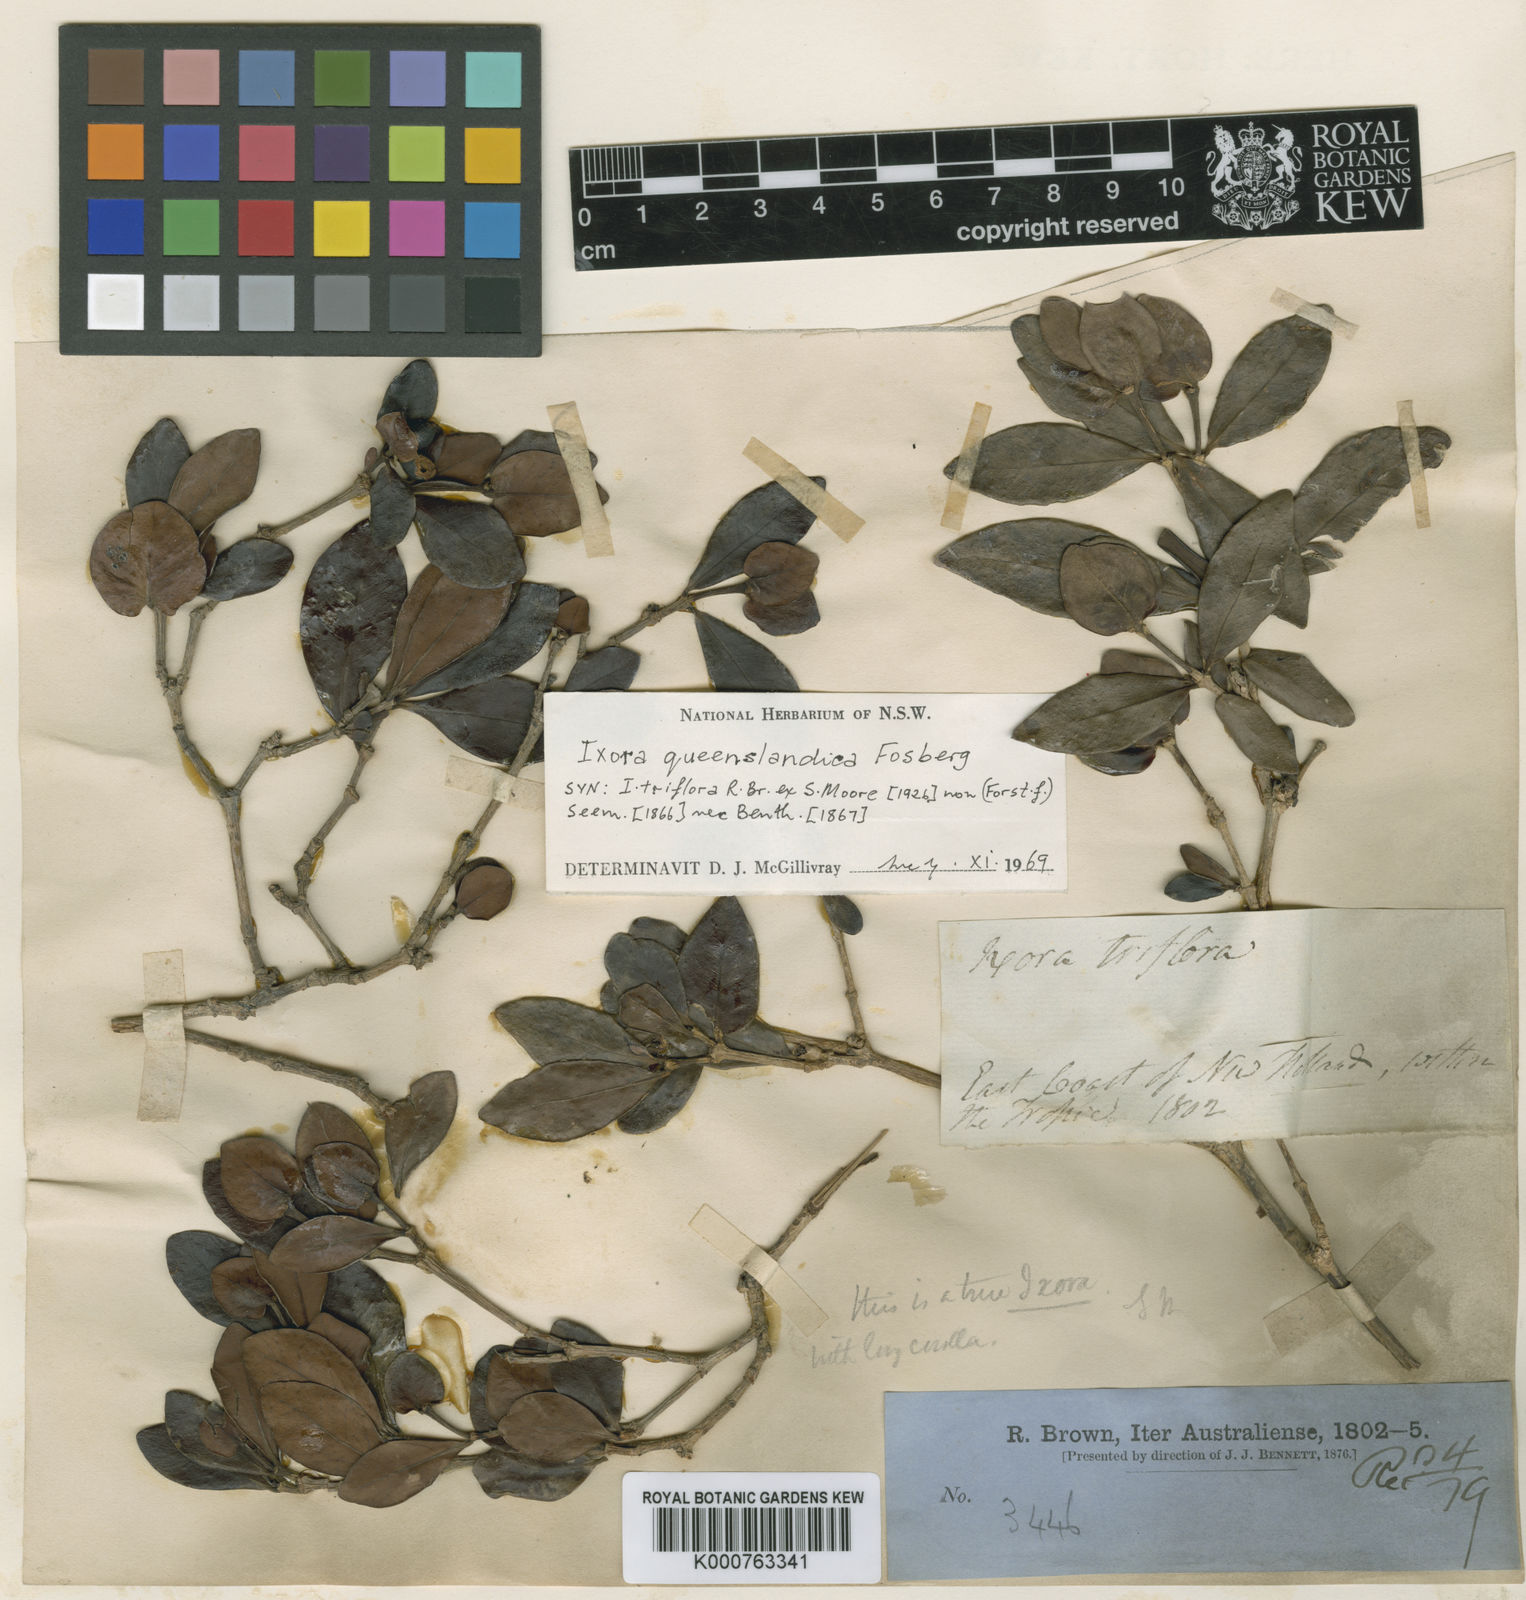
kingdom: Plantae
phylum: Tracheophyta
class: Magnoliopsida
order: Gentianales
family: Rubiaceae
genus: Triflorensia
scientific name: Triflorensia ixoroides
